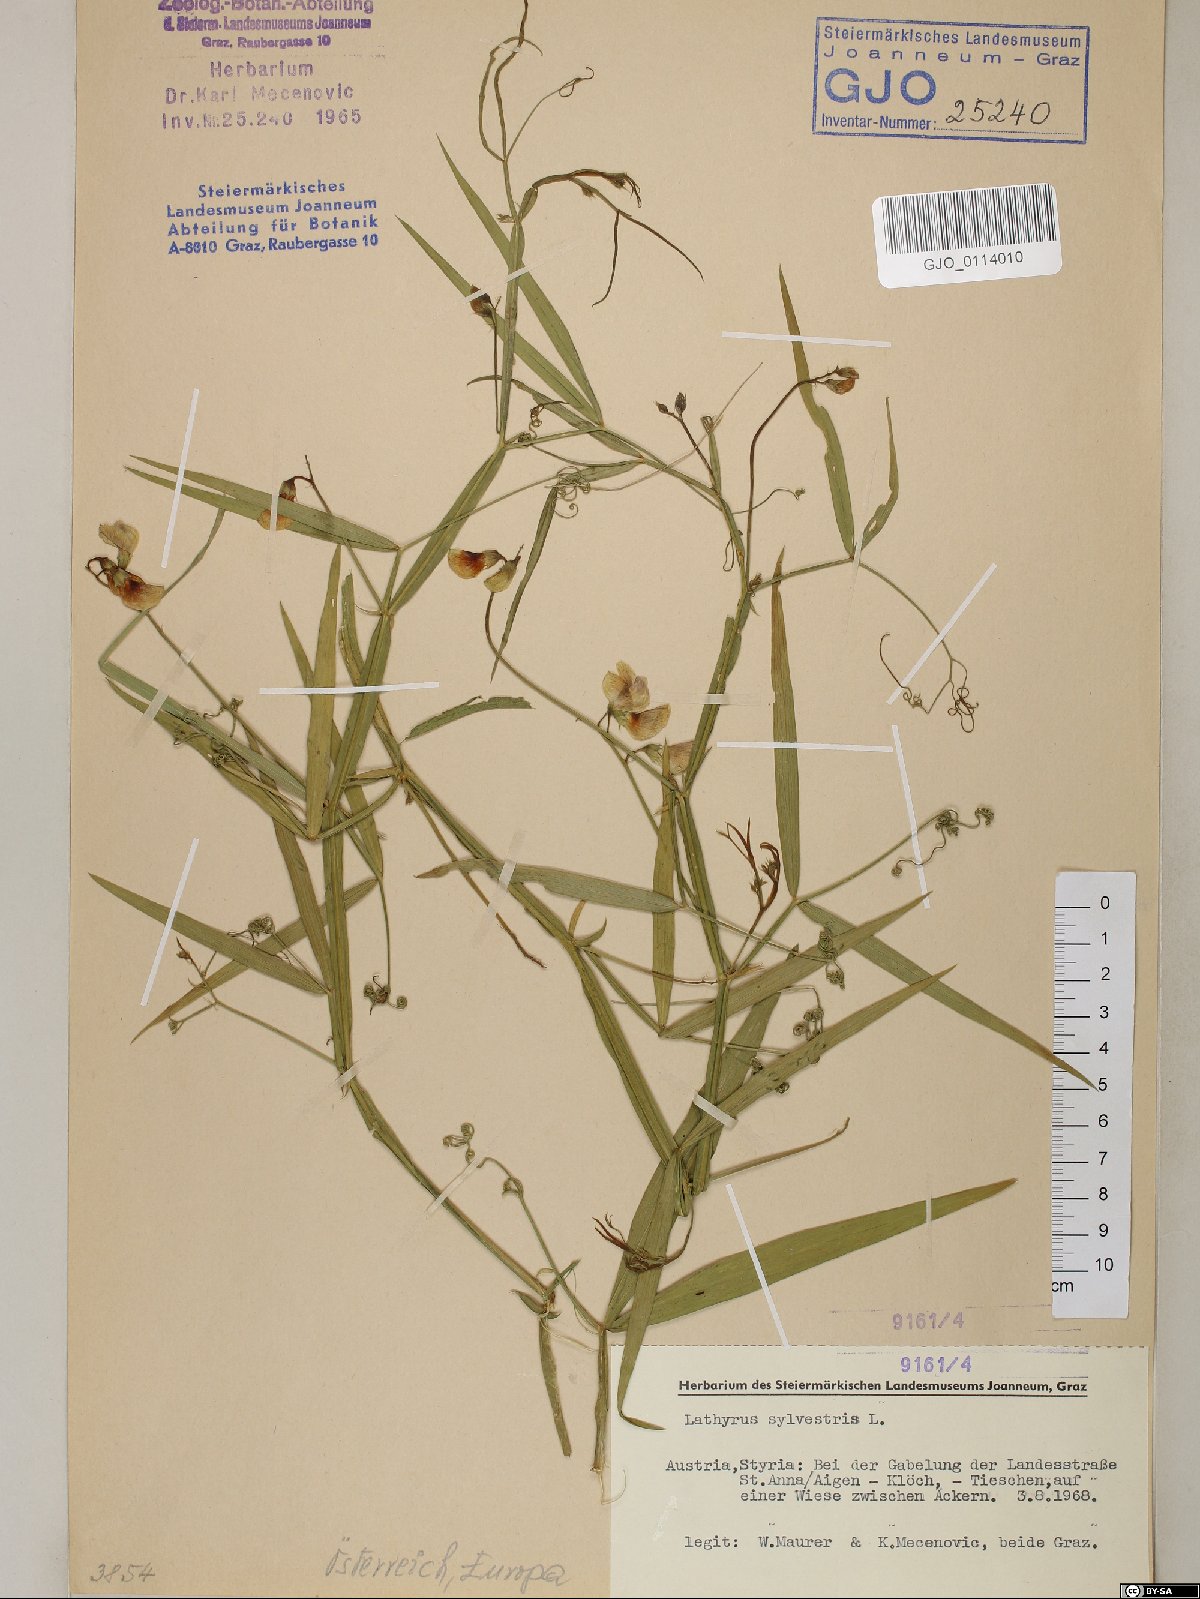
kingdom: Plantae
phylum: Tracheophyta
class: Magnoliopsida
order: Fabales
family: Fabaceae
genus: Lathyrus
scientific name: Lathyrus sylvestris
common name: Flat pea
